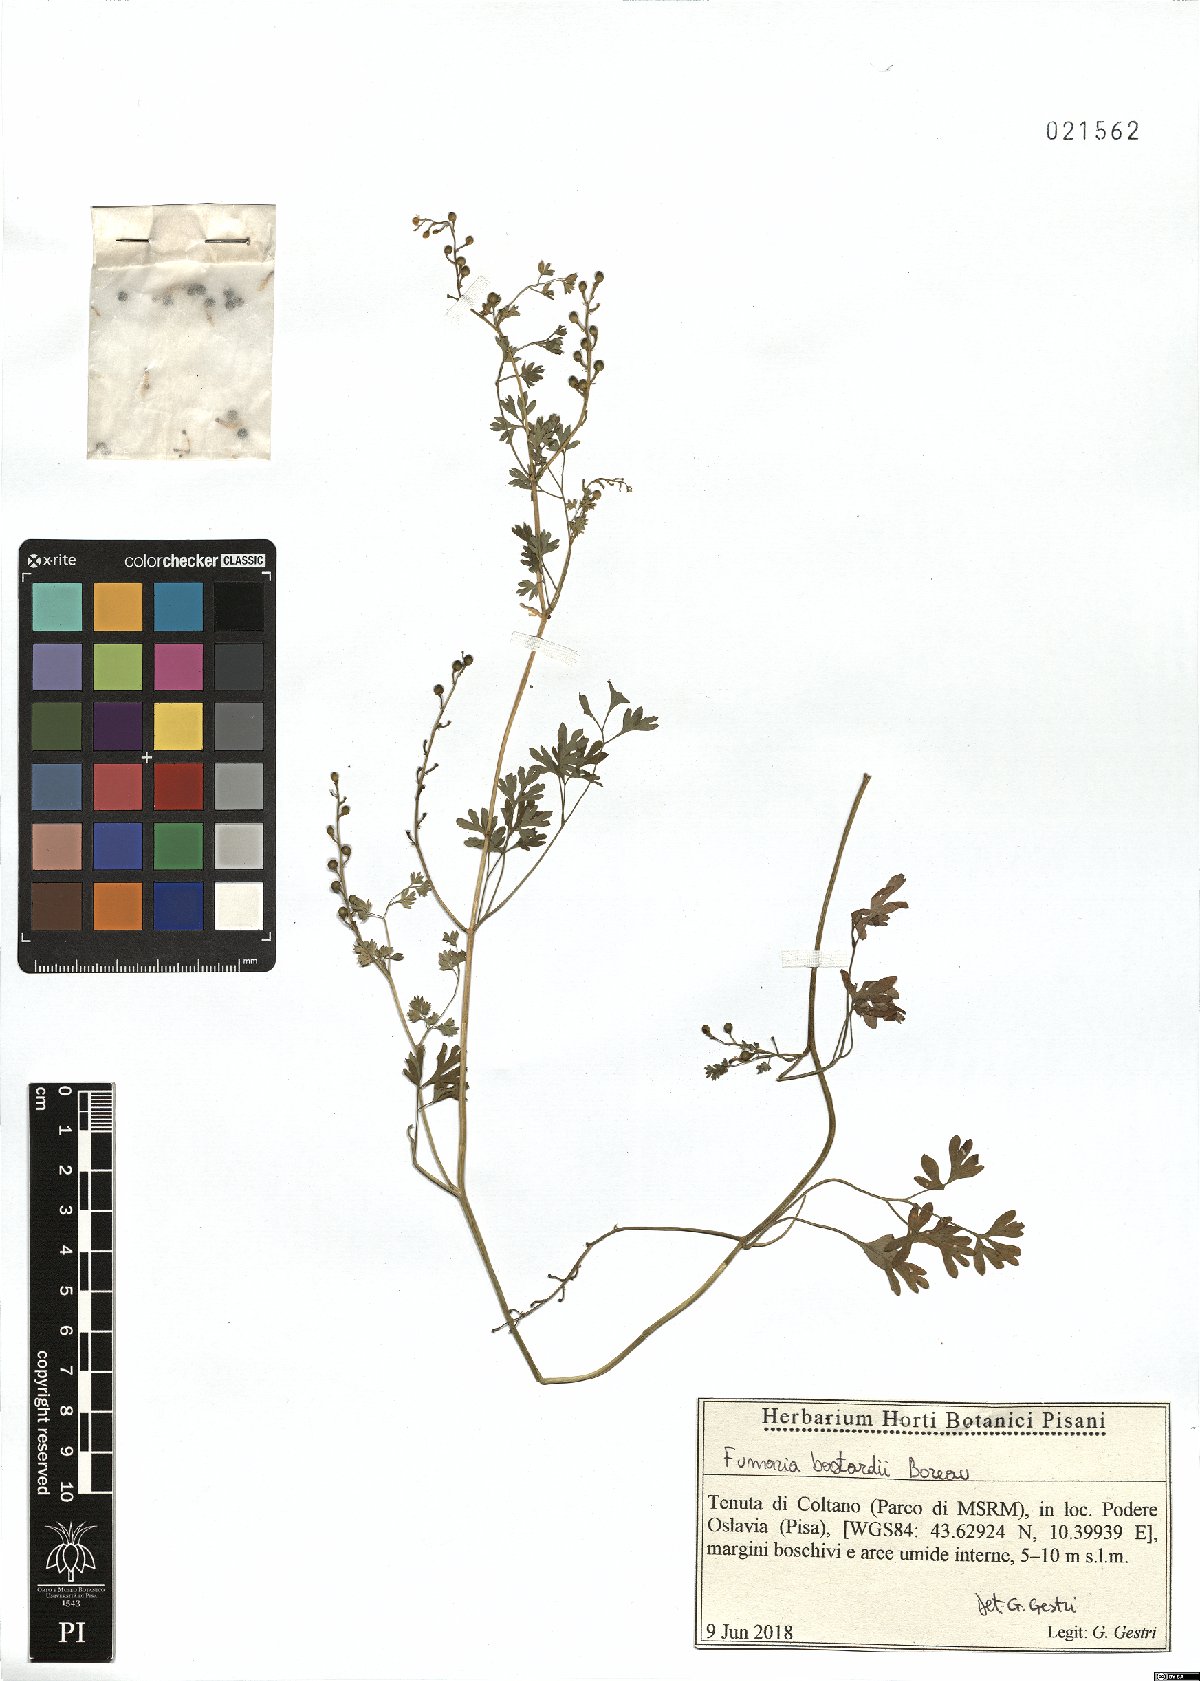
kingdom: Plantae
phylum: Tracheophyta
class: Magnoliopsida
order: Ranunculales
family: Papaveraceae
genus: Fumaria
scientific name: Fumaria bastardii
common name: Tall ramping-fumitory
